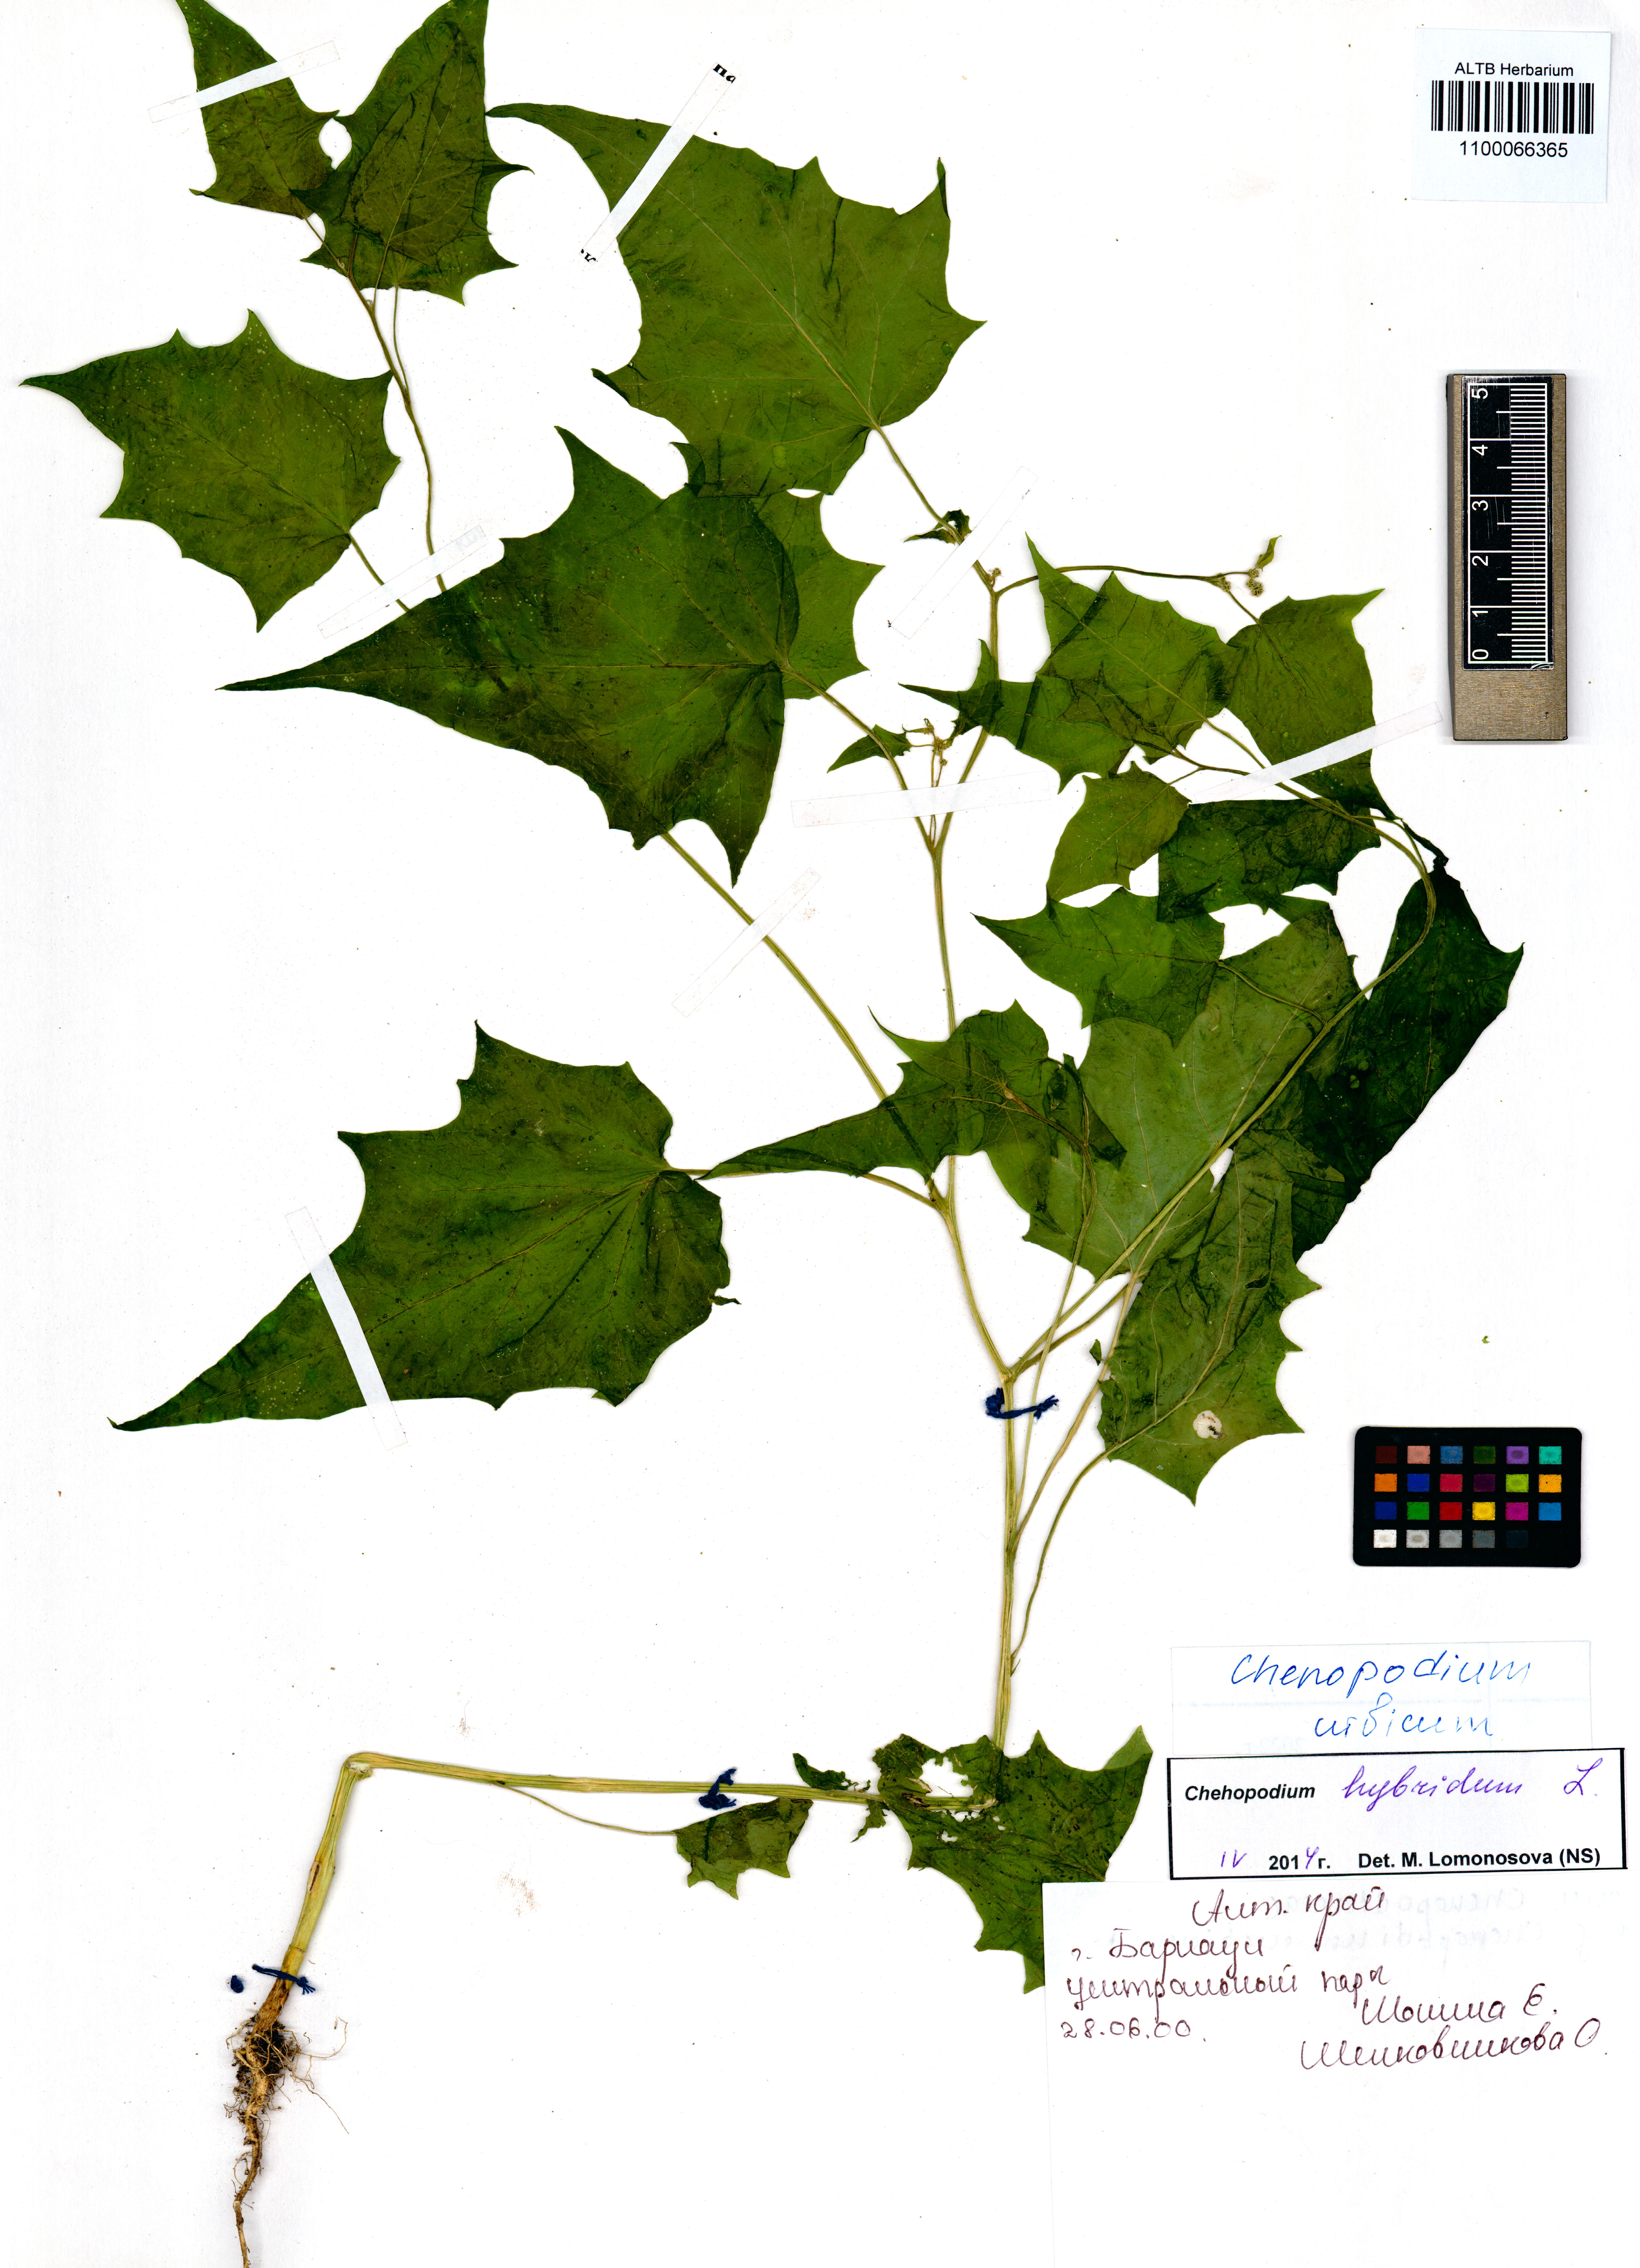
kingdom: Plantae
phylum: Tracheophyta
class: Magnoliopsida
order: Caryophyllales
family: Amaranthaceae
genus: Oxybasis
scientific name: Oxybasis urbica
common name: City goosefoot
